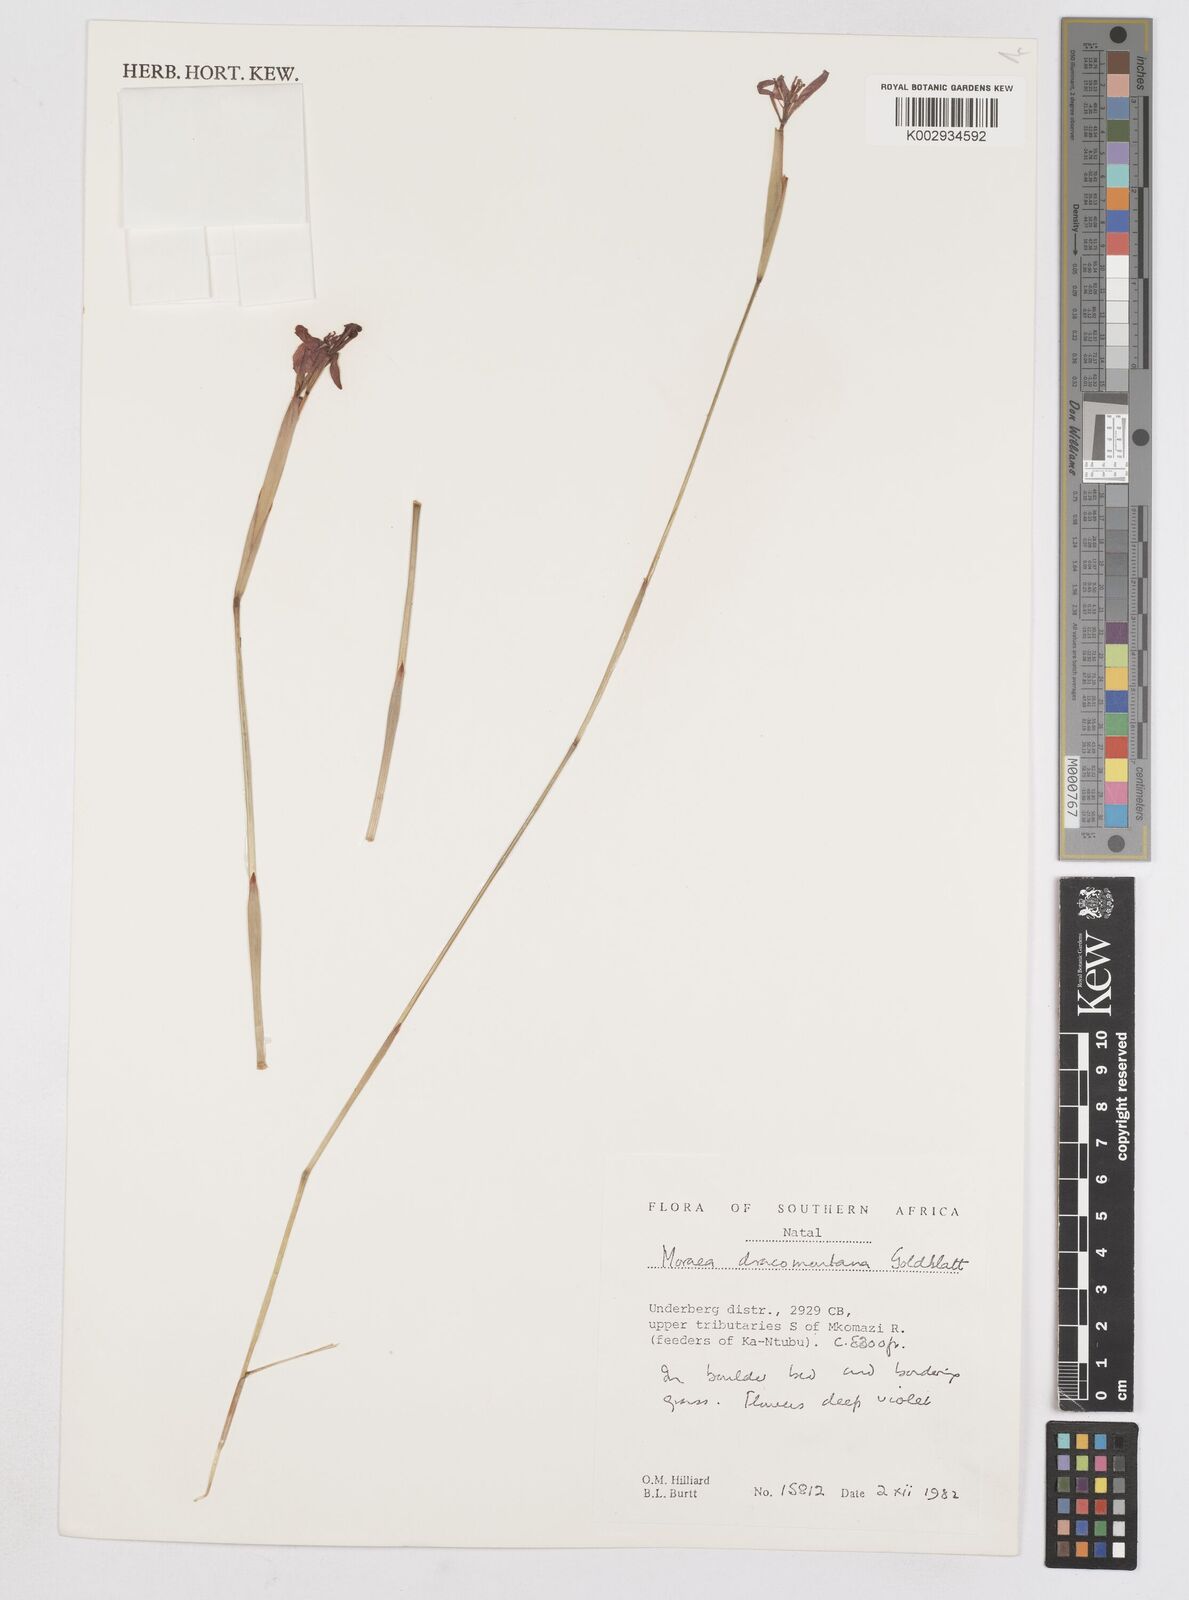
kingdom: Plantae
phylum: Tracheophyta
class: Liliopsida
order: Asparagales
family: Iridaceae
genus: Moraea
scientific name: Moraea dracomontana
